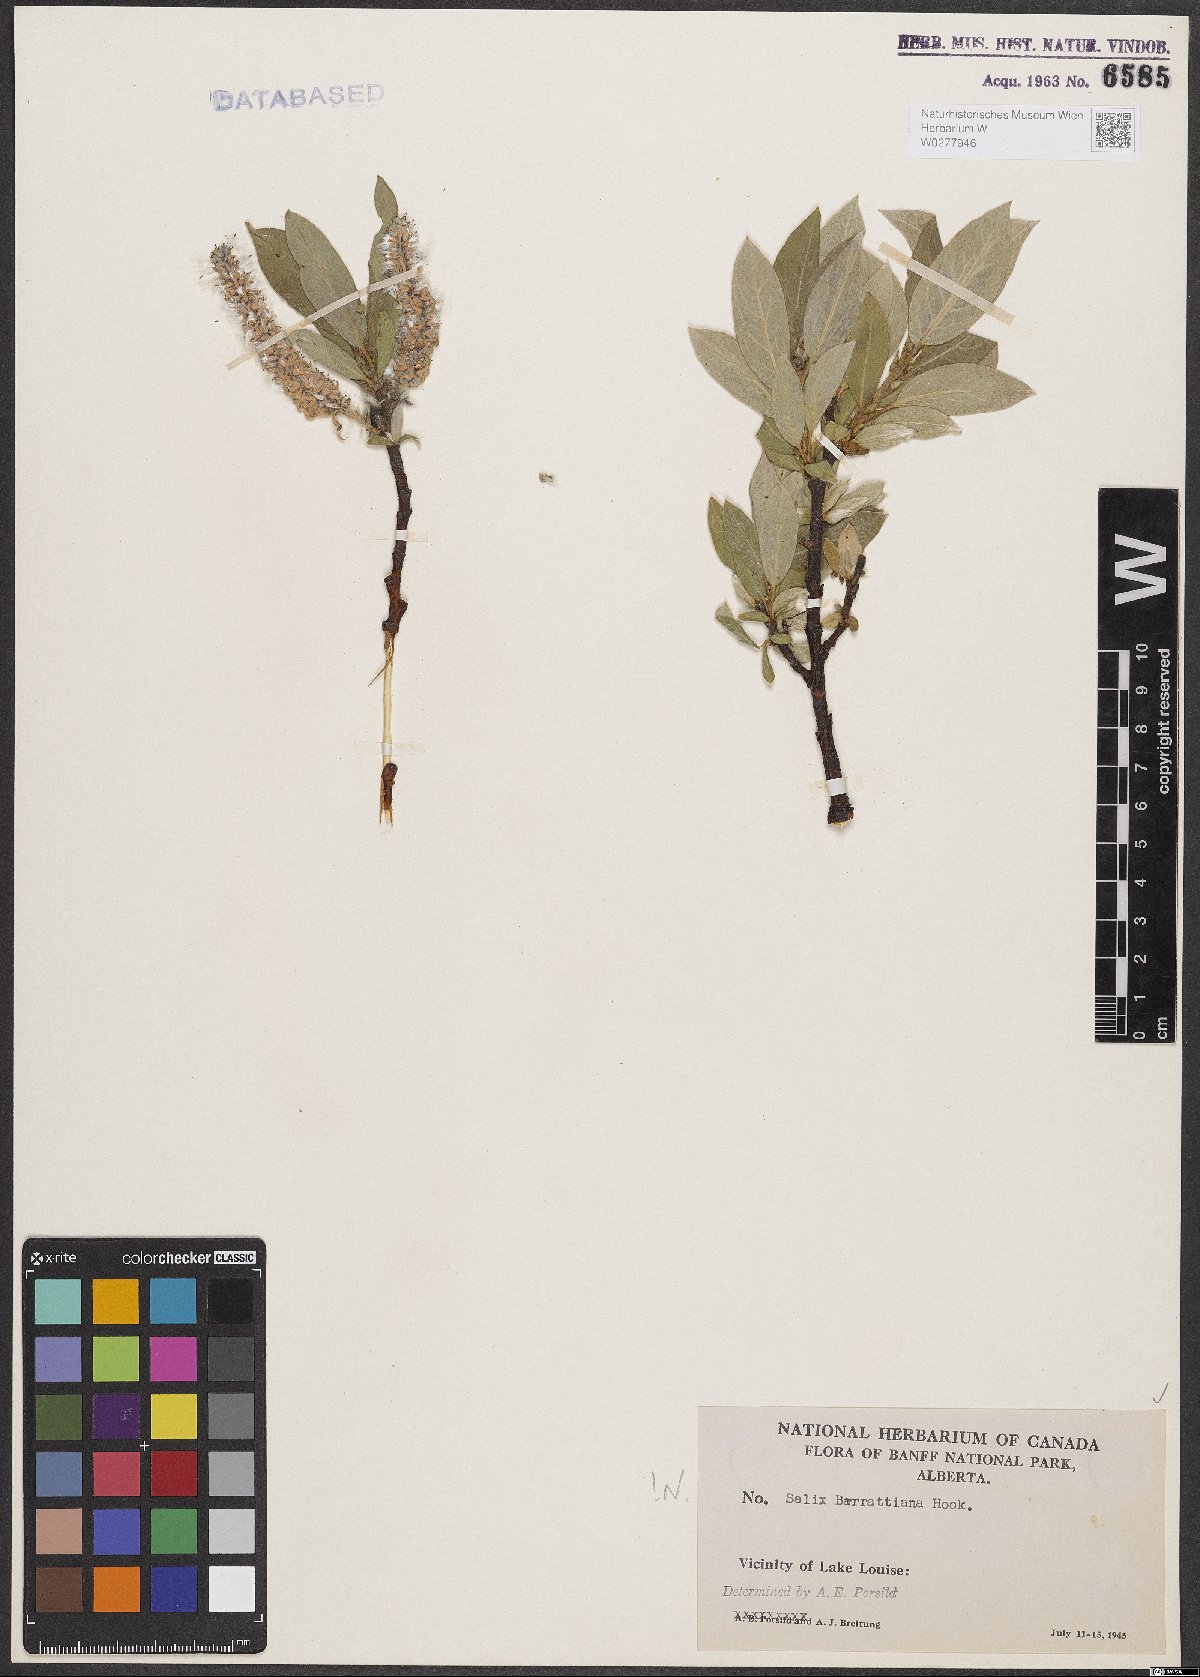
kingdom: Plantae
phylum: Tracheophyta
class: Magnoliopsida
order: Malpighiales
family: Salicaceae
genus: Salix
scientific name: Salix barrattiana
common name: Barratt's willow
